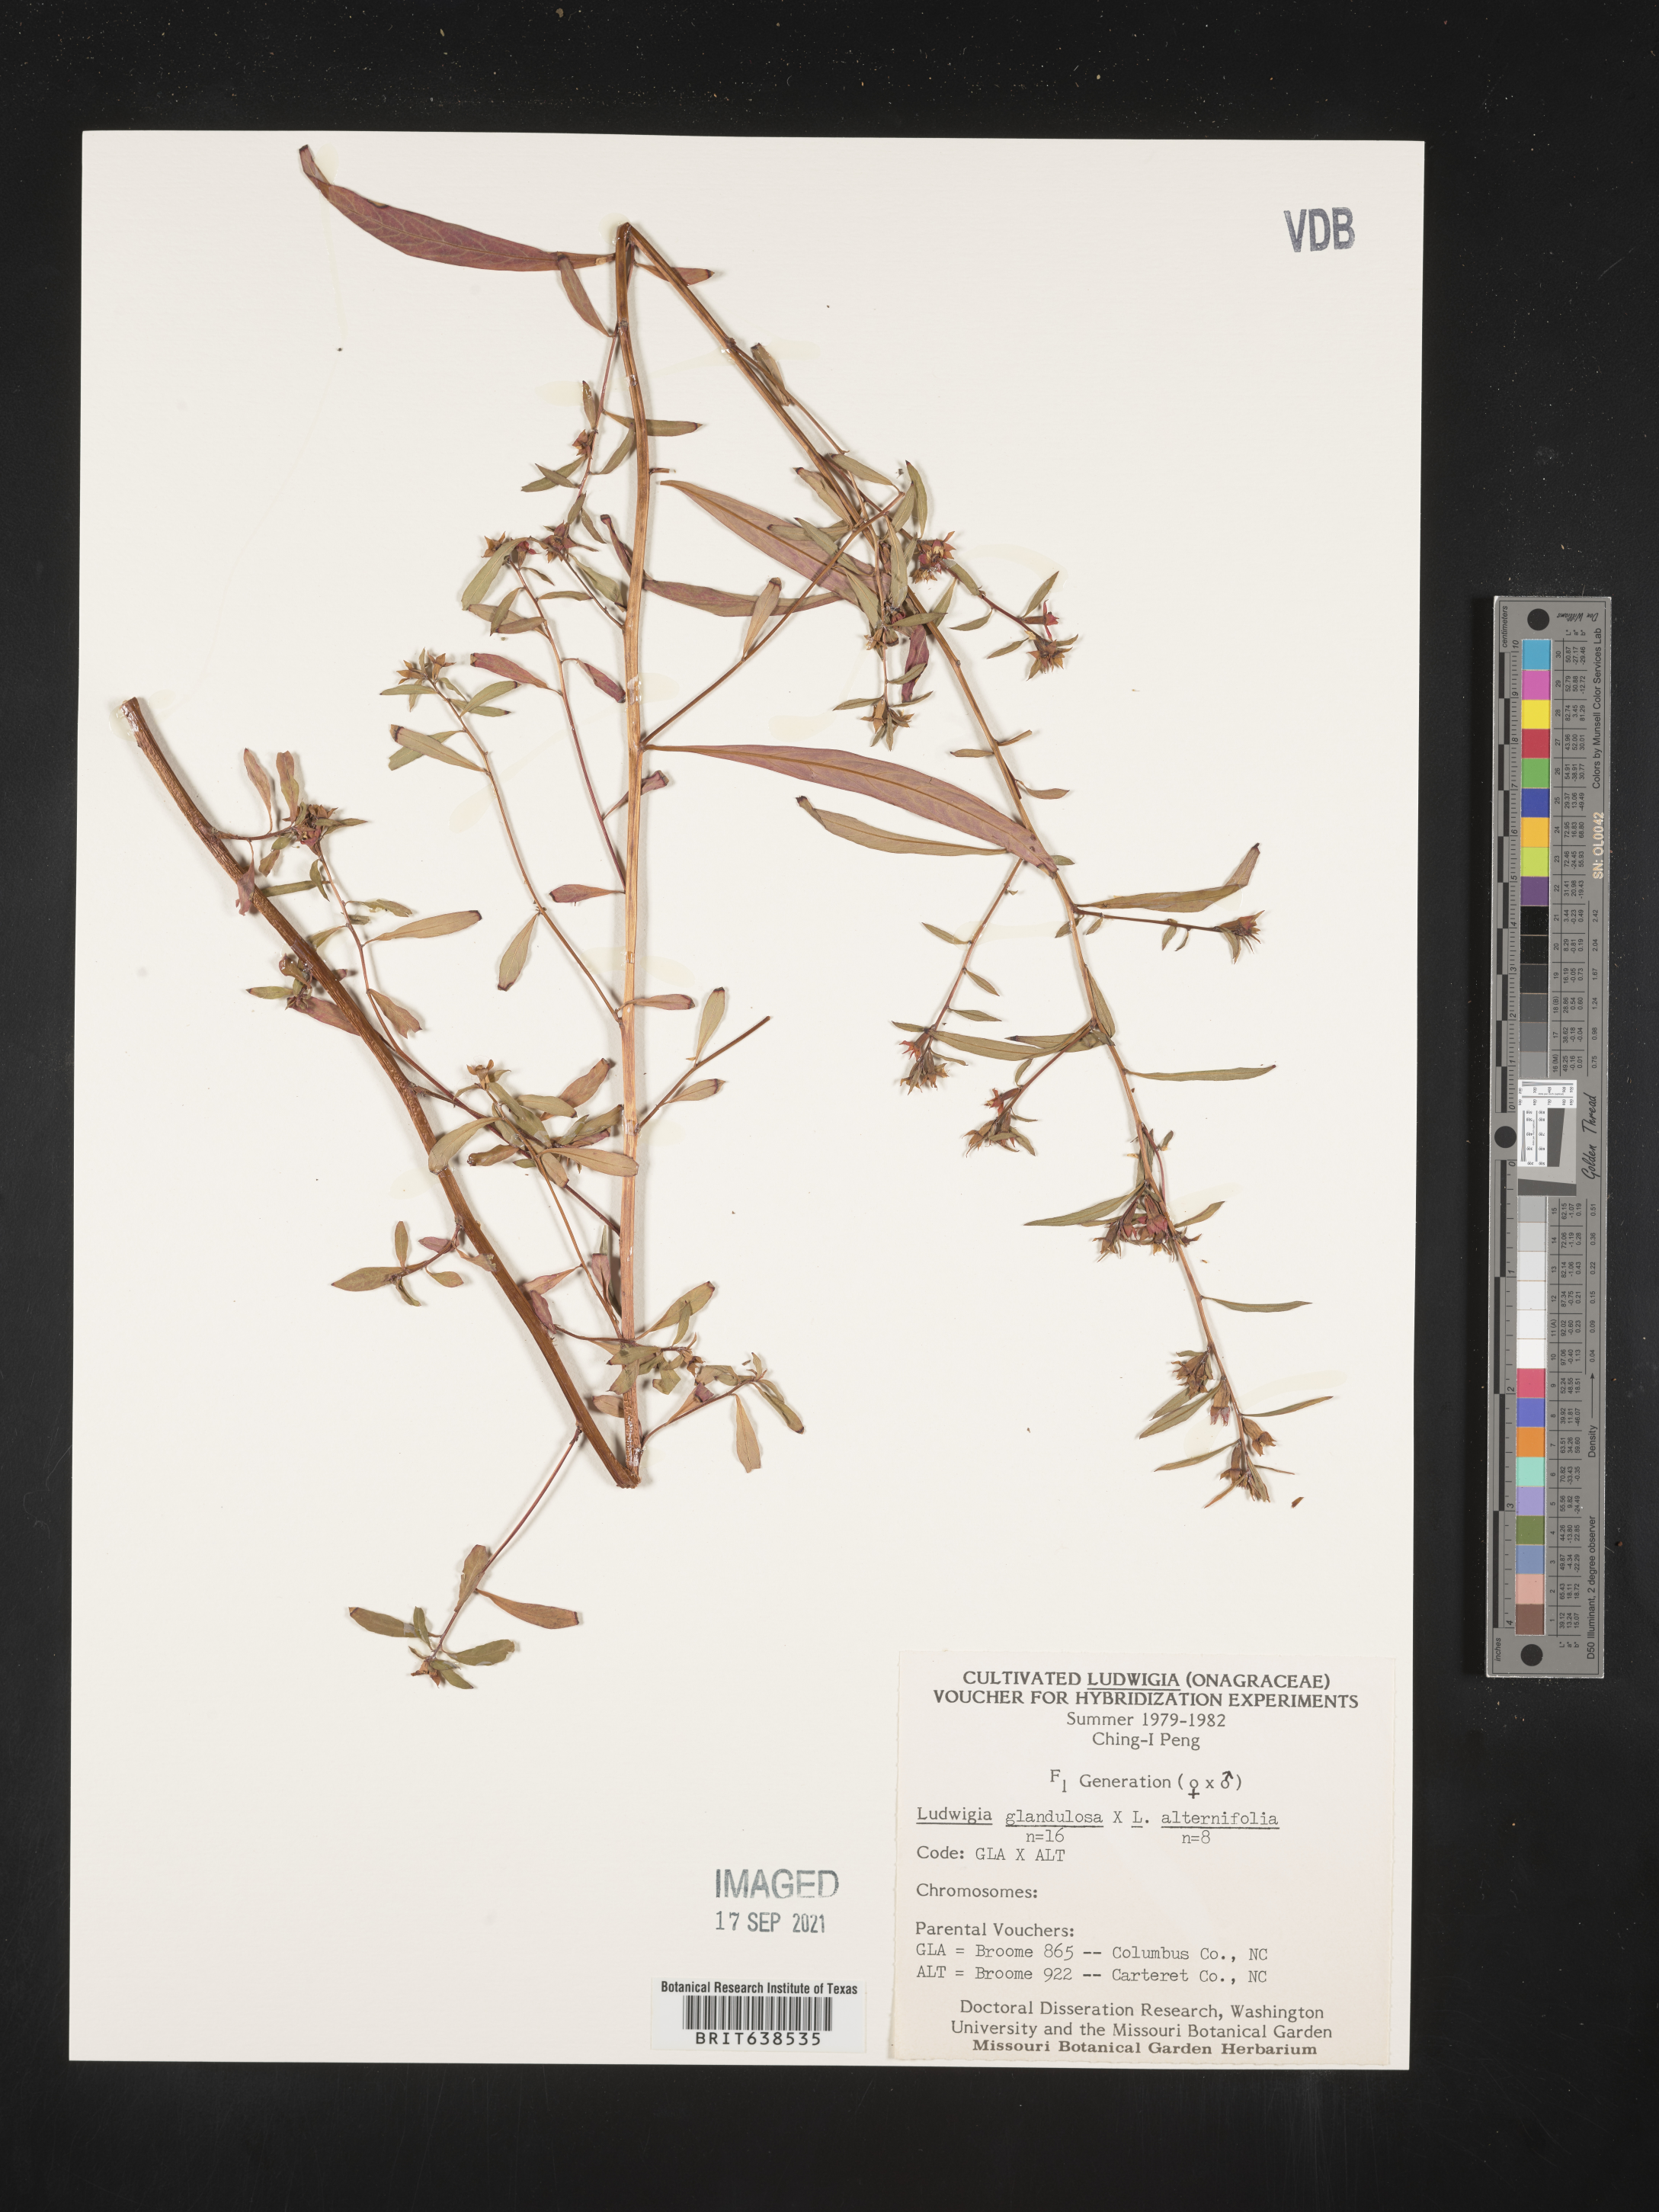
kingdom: Plantae
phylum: Tracheophyta
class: Magnoliopsida
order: Myrtales
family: Onagraceae
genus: Ludwigia
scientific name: Ludwigia
